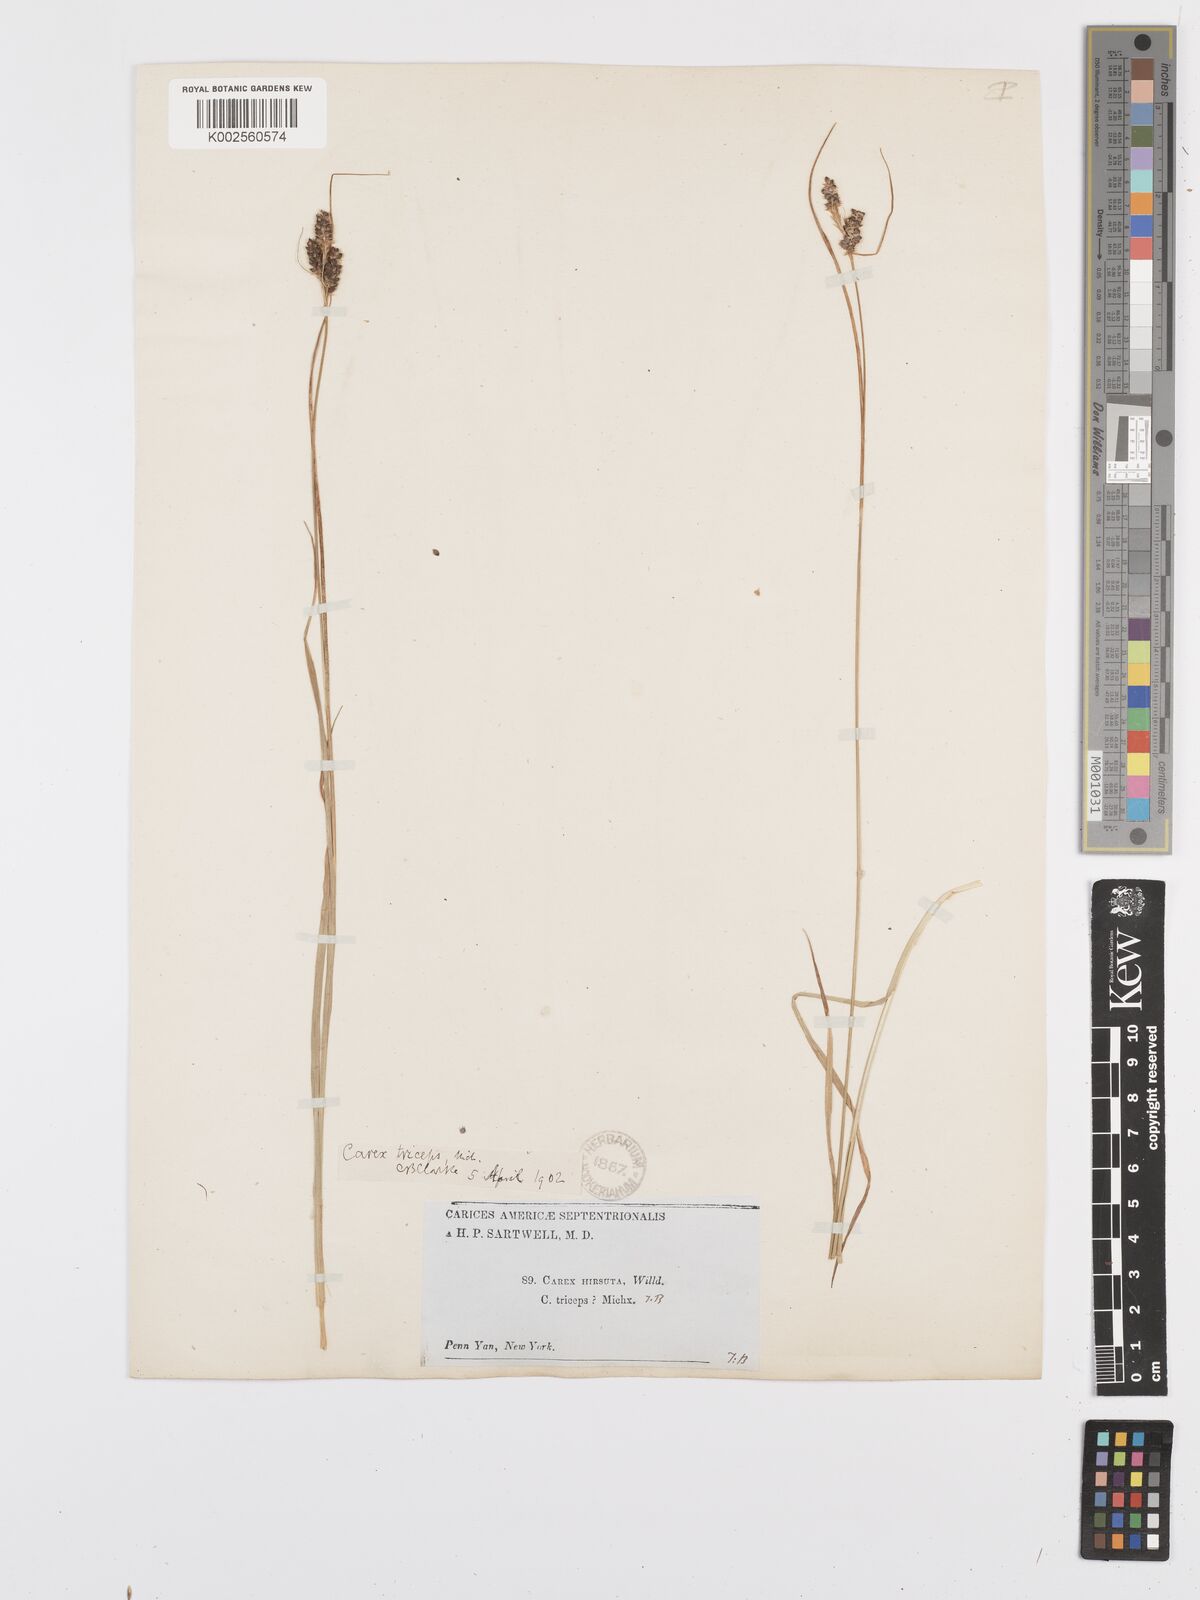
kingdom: Plantae
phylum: Tracheophyta
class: Liliopsida
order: Poales
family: Cyperaceae
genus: Carex
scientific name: Carex complanata
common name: Hirsute sedge
